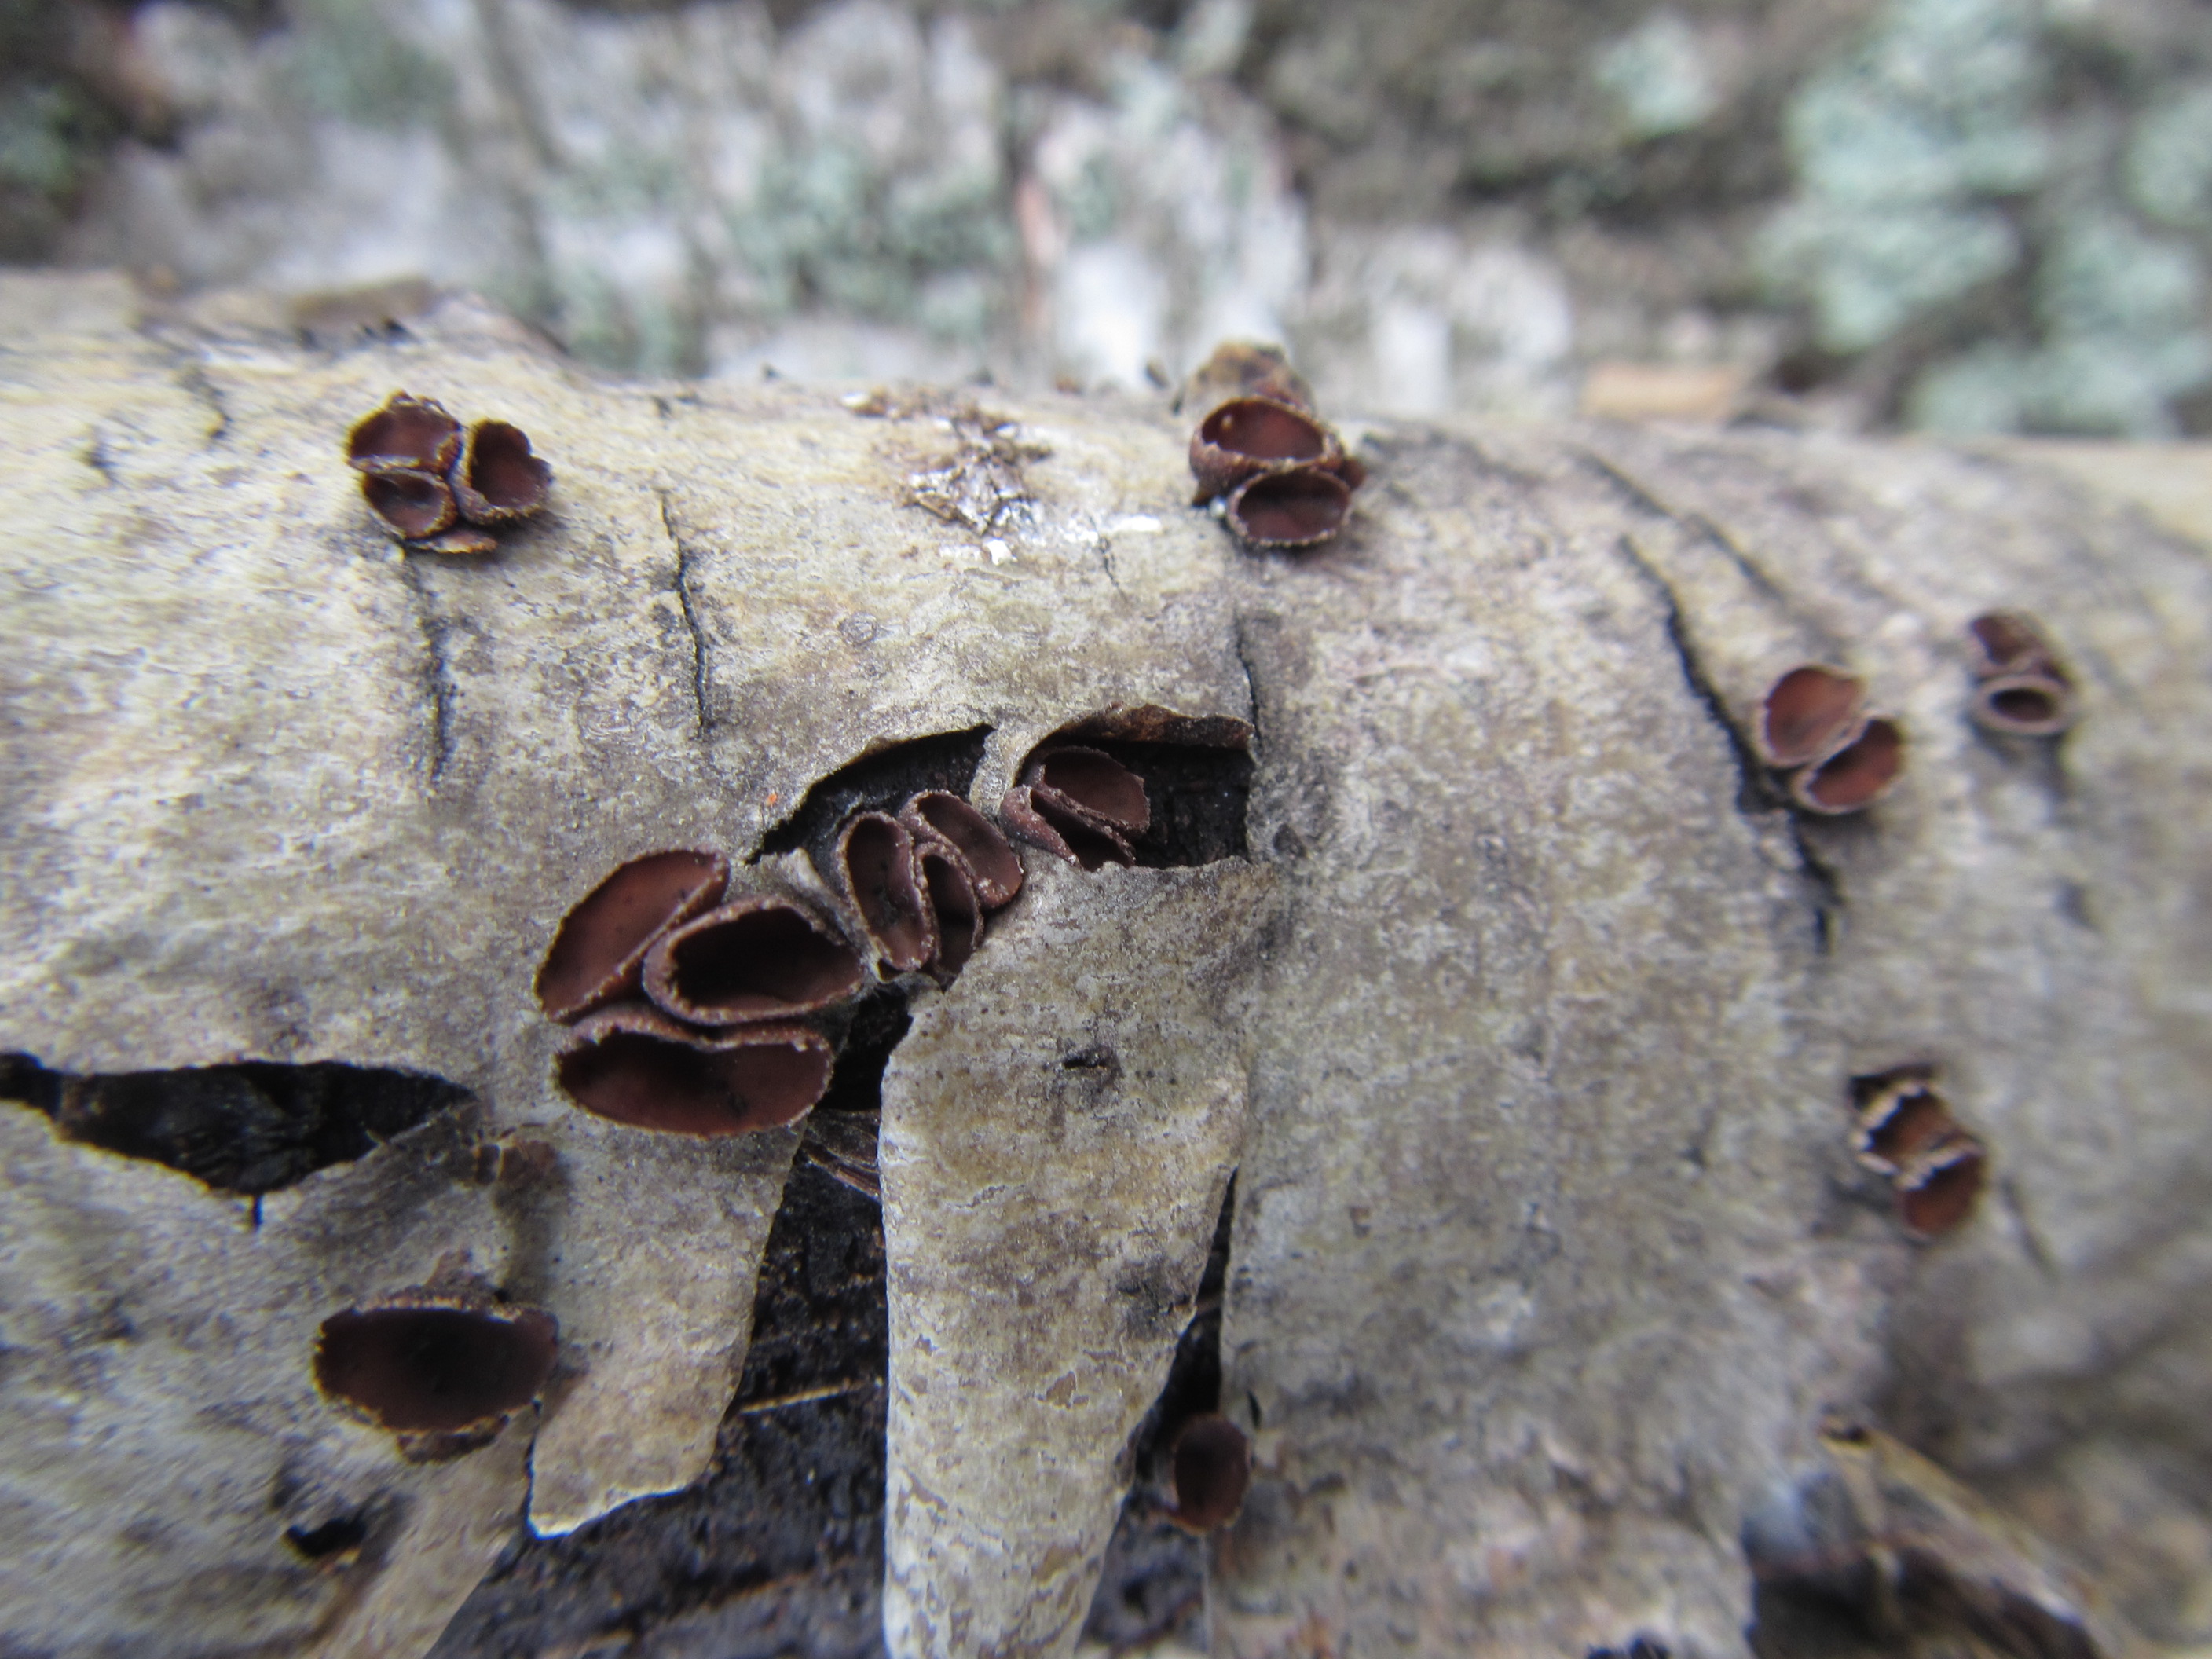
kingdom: Fungi
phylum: Ascomycota
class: Leotiomycetes
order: Helotiales
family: Sclerotiniaceae
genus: Sclerencoelia
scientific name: Sclerencoelia fascicularis
